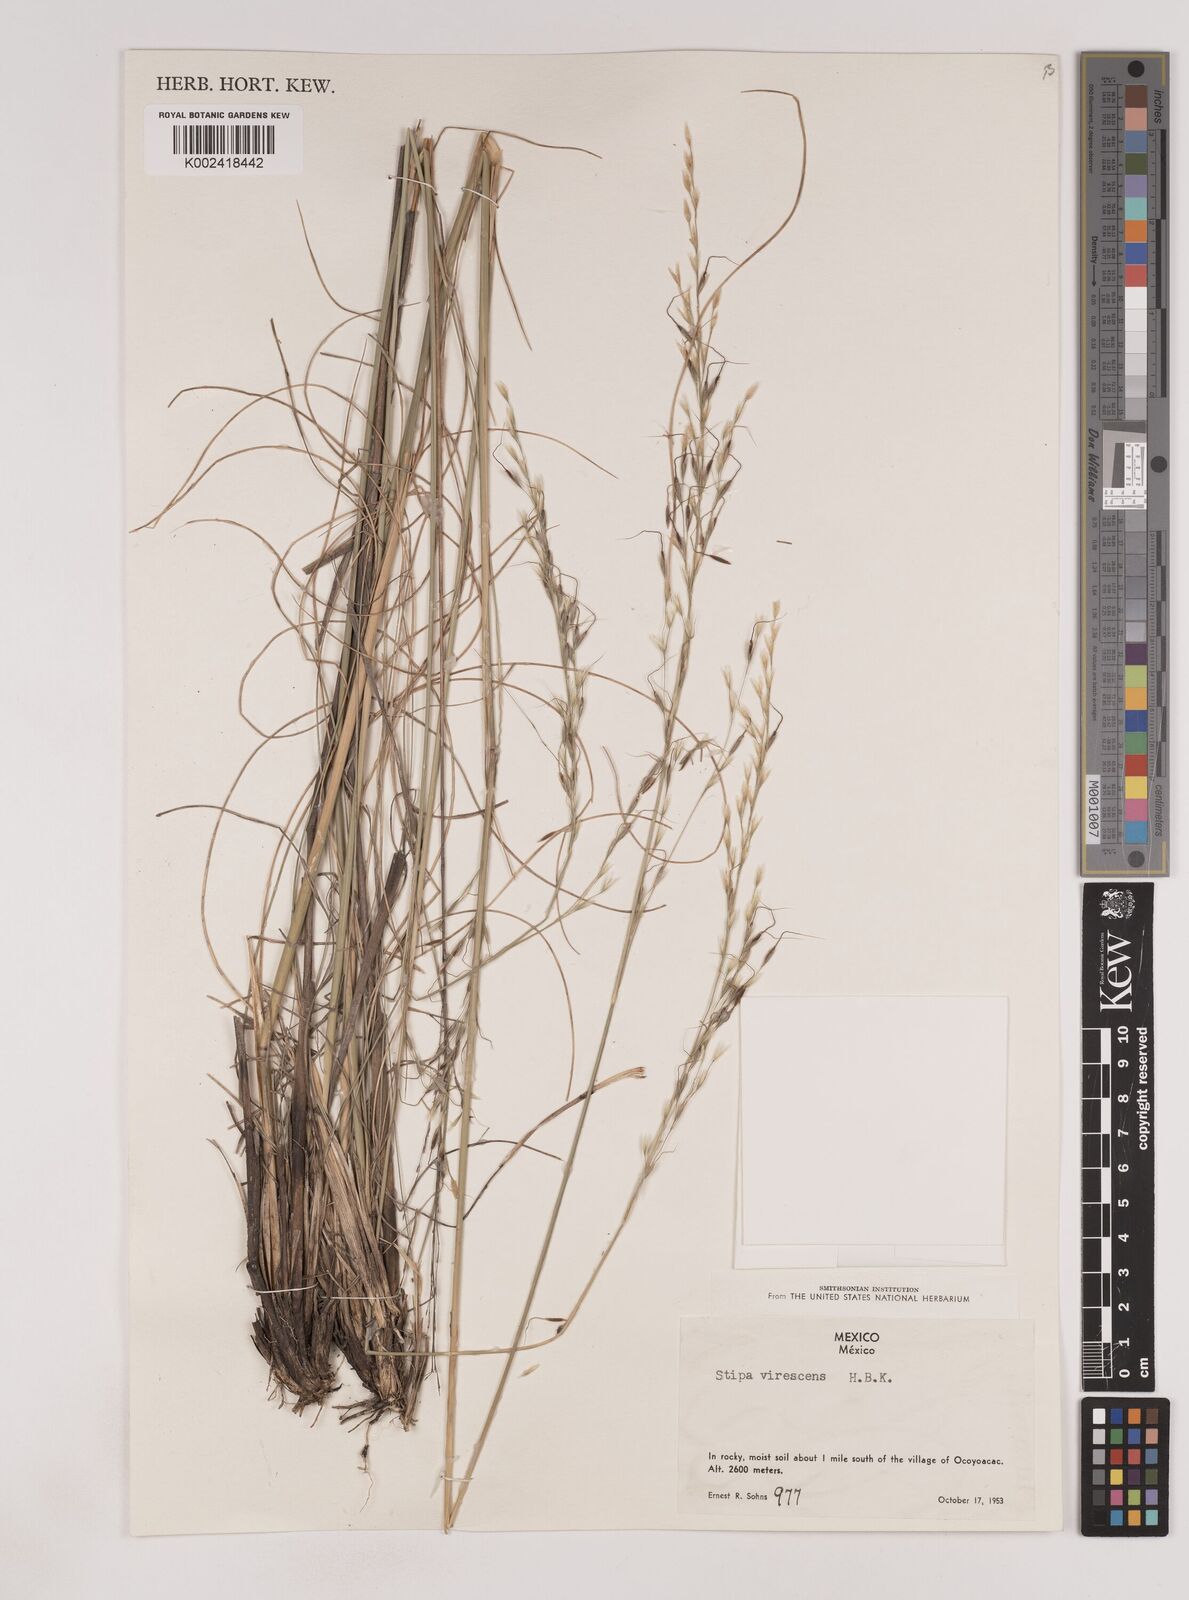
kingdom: Plantae
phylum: Tracheophyta
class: Liliopsida
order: Poales
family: Poaceae
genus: Piptochaetium
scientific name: Piptochaetium virescens
